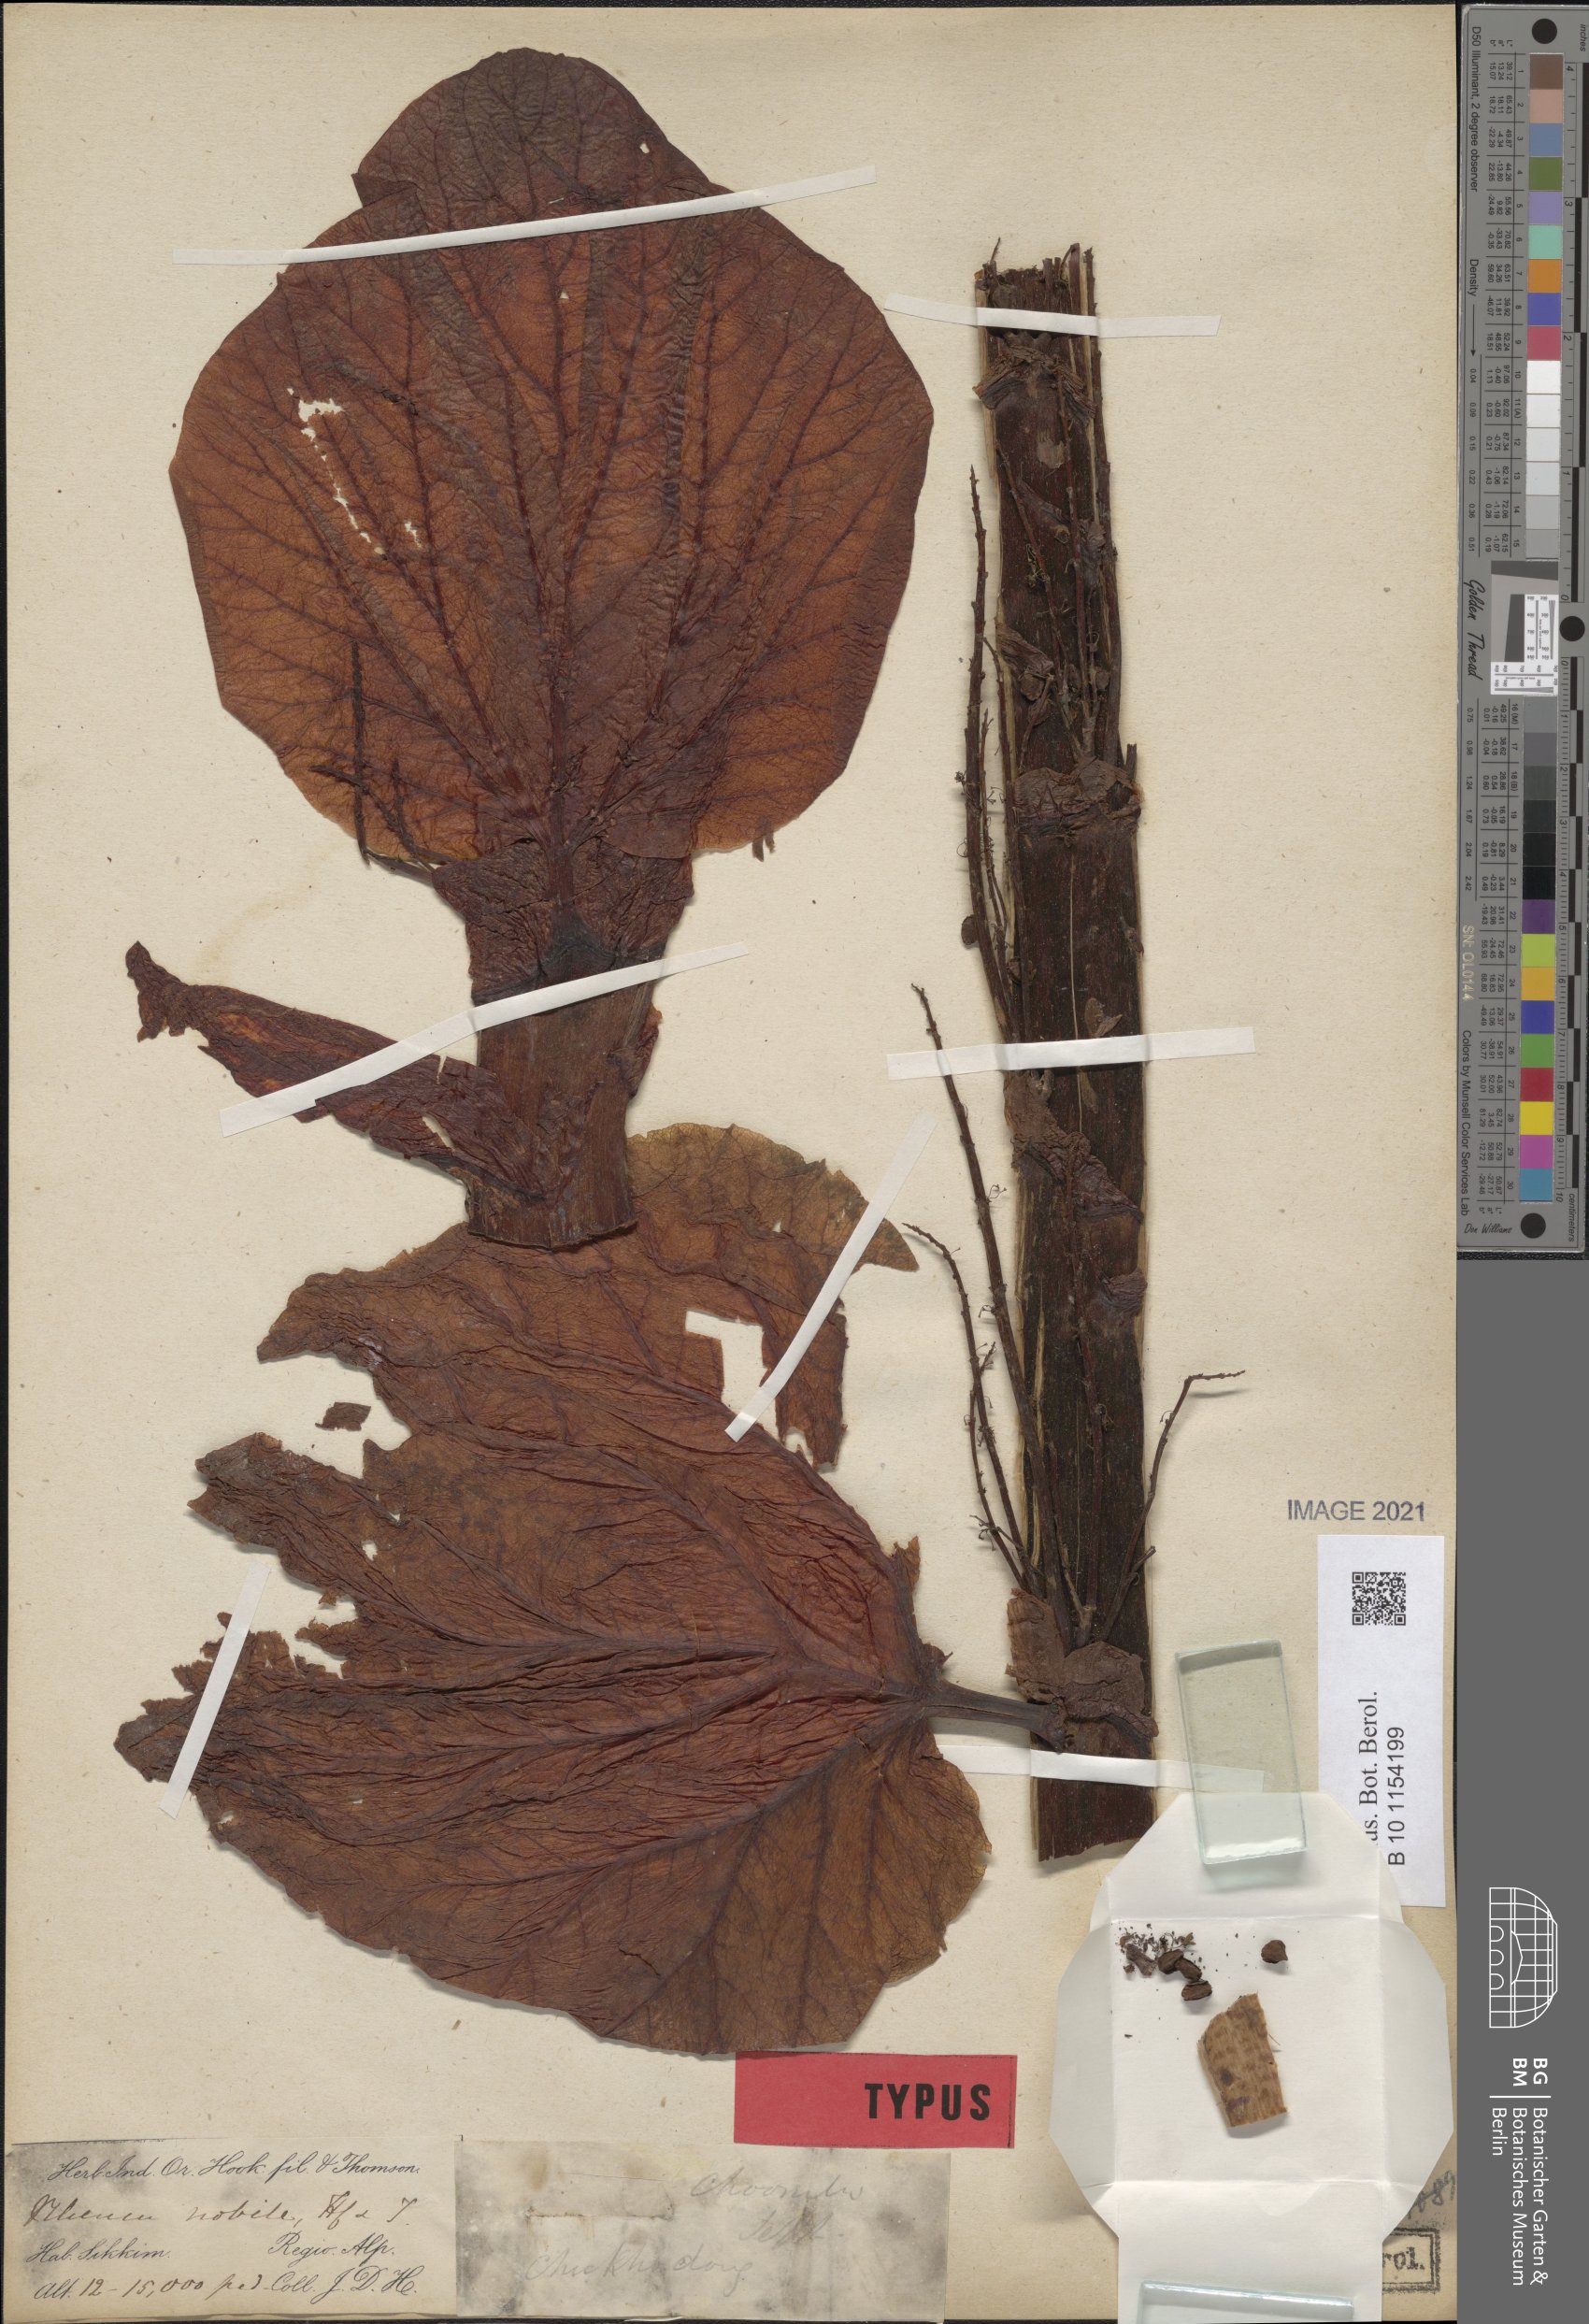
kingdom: Plantae
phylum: Tracheophyta
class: Magnoliopsida
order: Caryophyllales
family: Polygonaceae
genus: Rheum
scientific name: Rheum nobile
